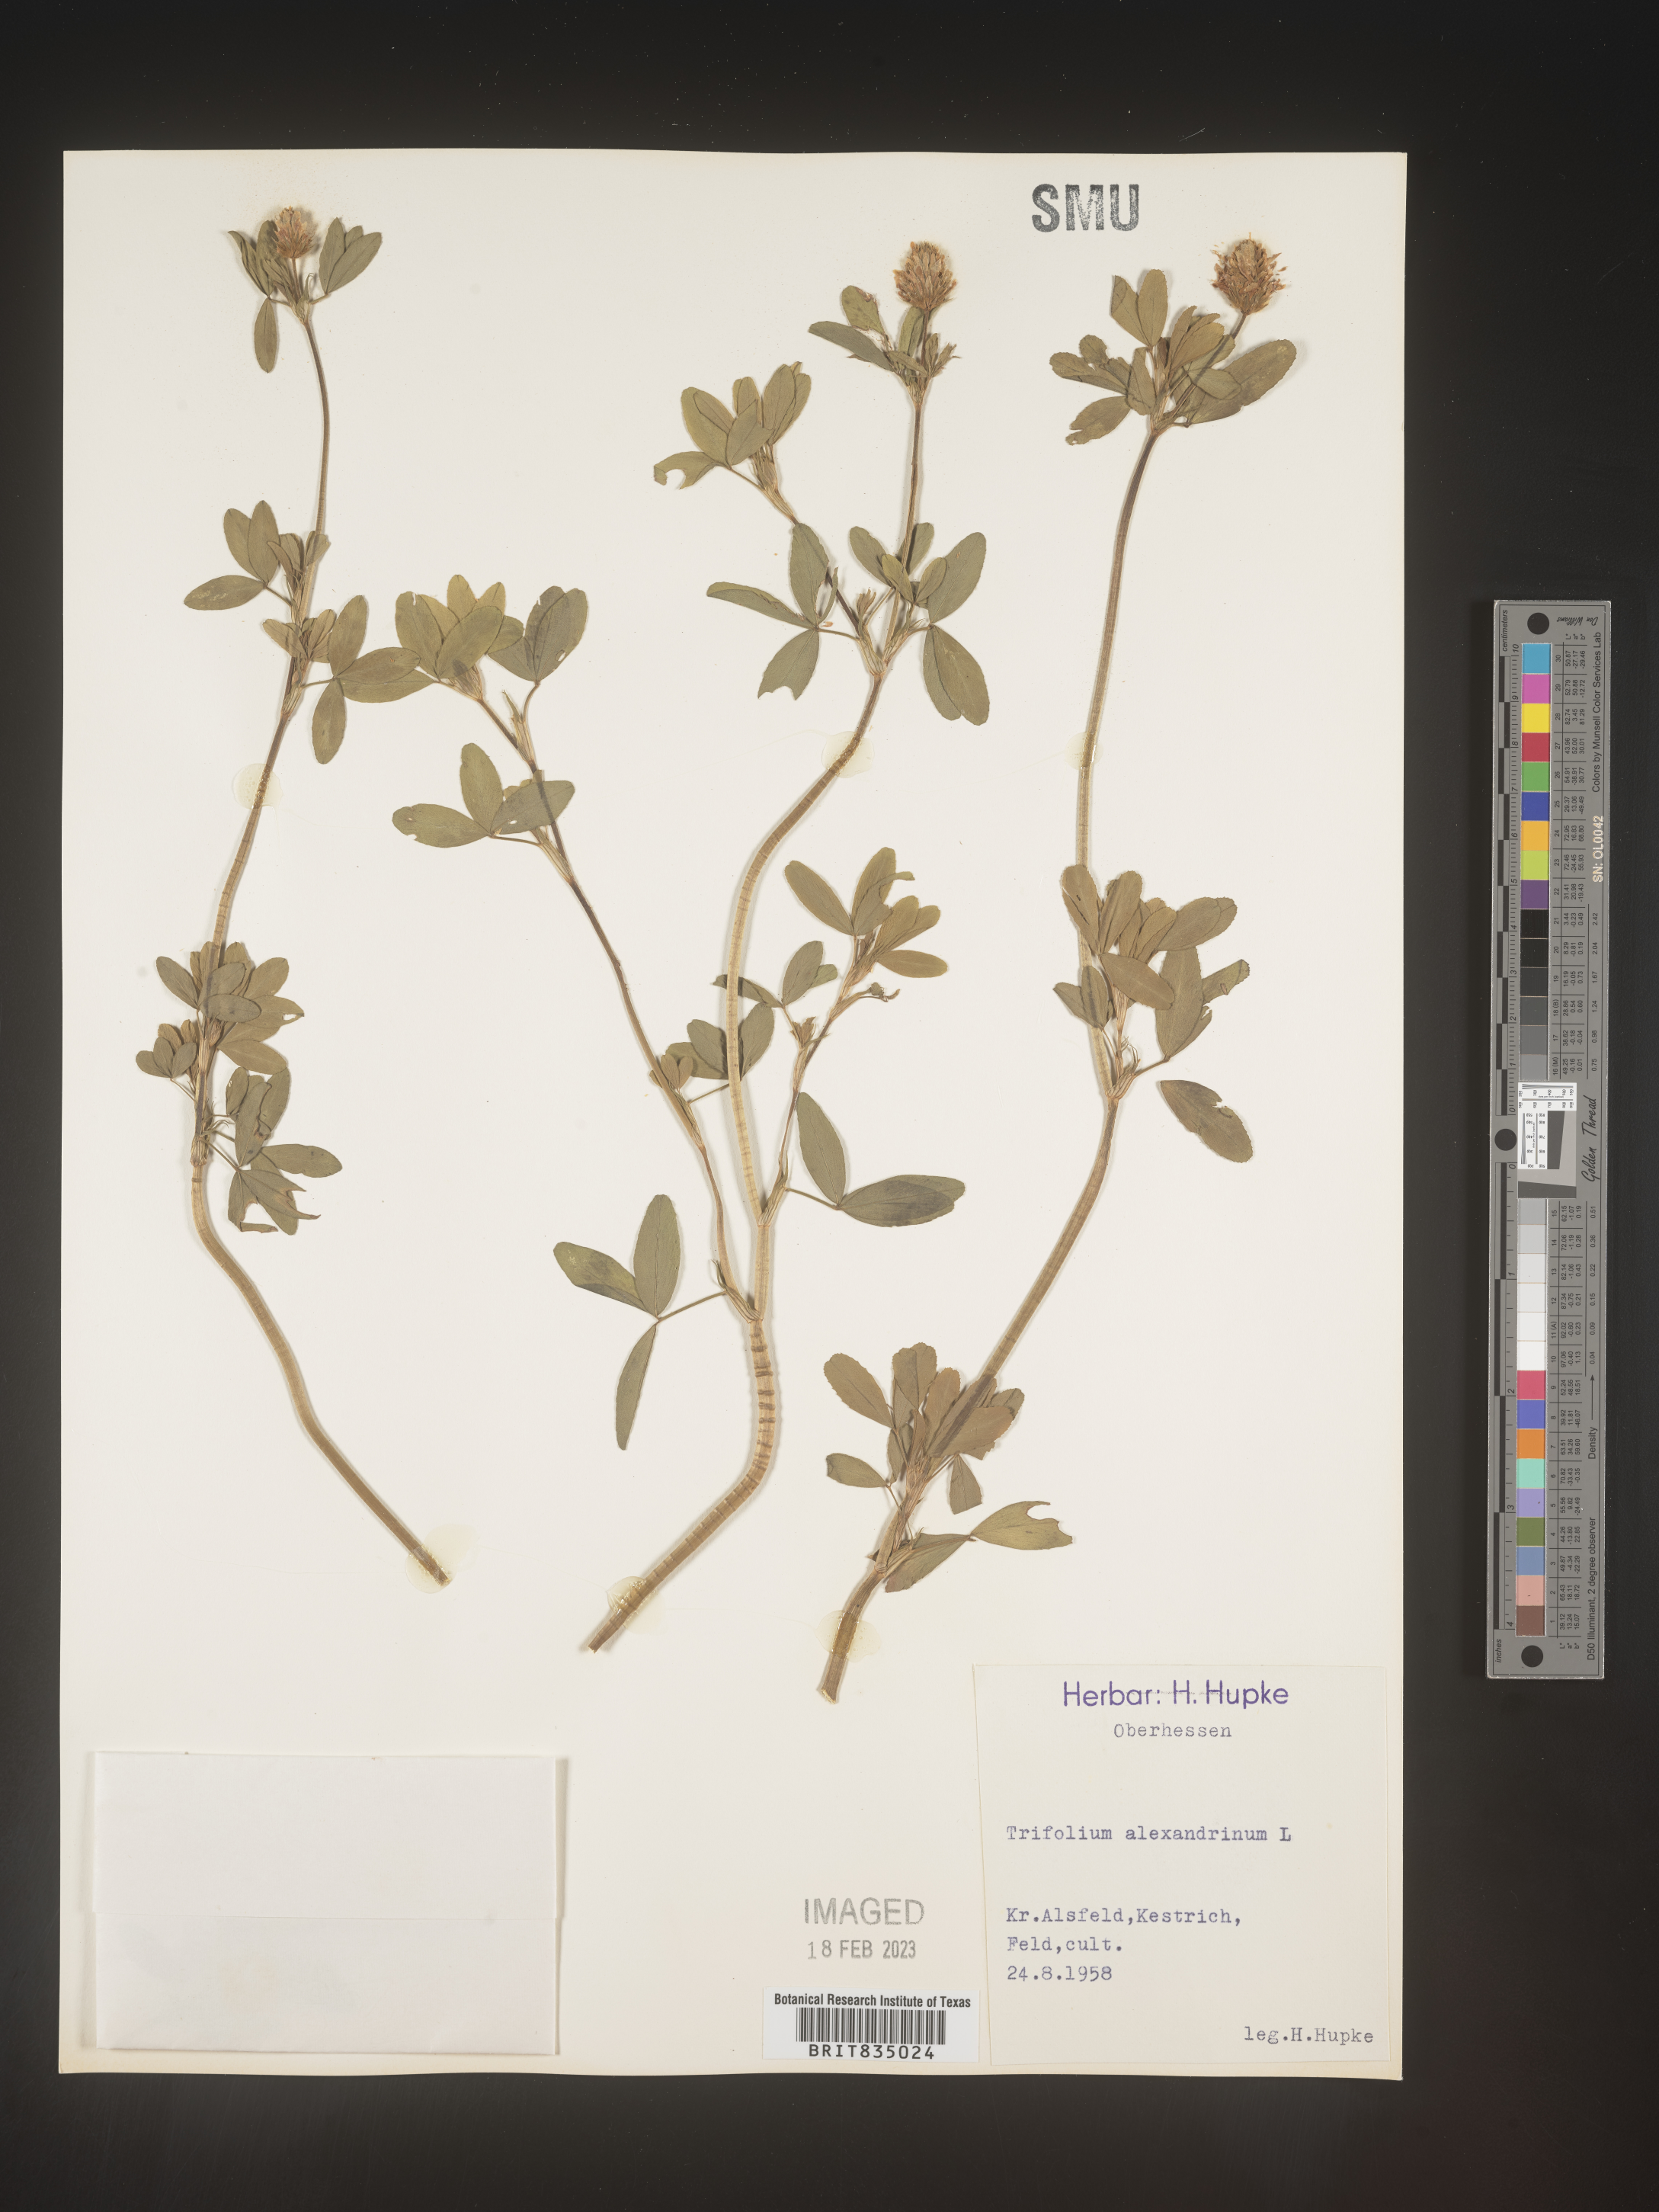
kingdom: Plantae
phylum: Tracheophyta
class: Magnoliopsida
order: Fabales
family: Fabaceae
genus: Trifolium
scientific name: Trifolium
